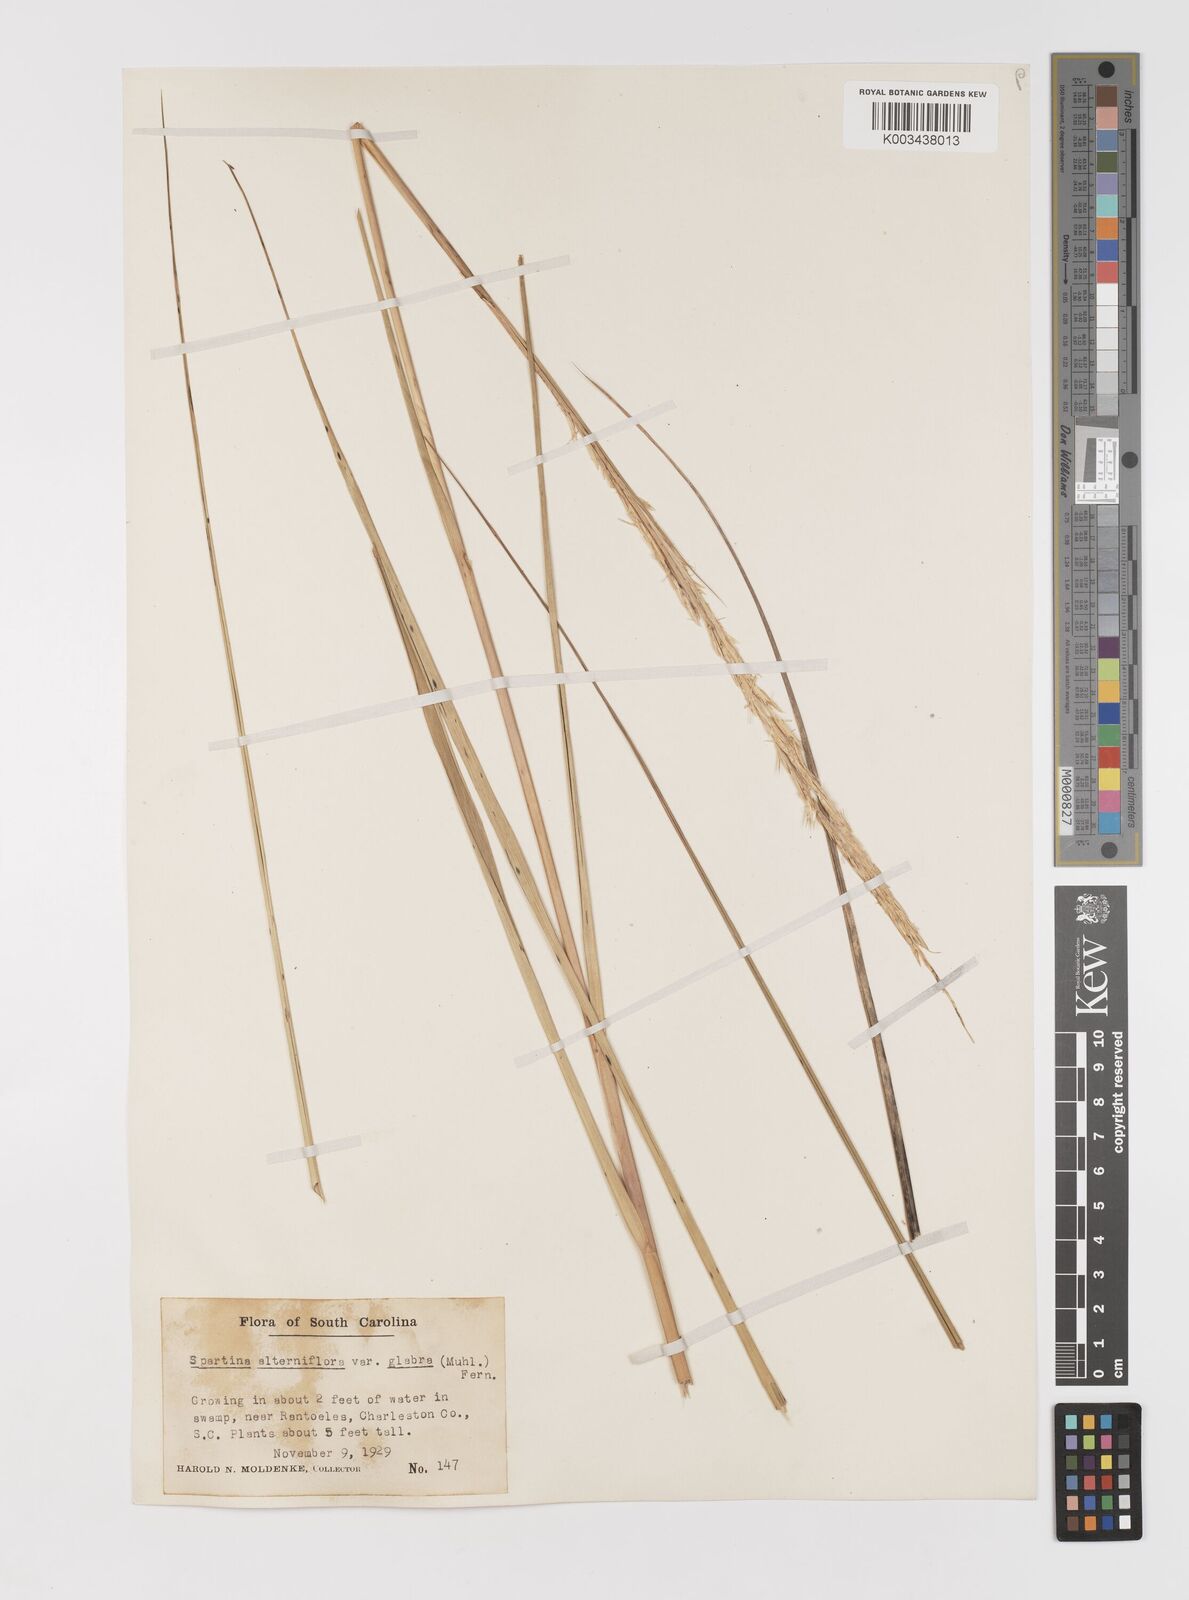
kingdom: Animalia
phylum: Mollusca
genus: Spartina
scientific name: Spartina
